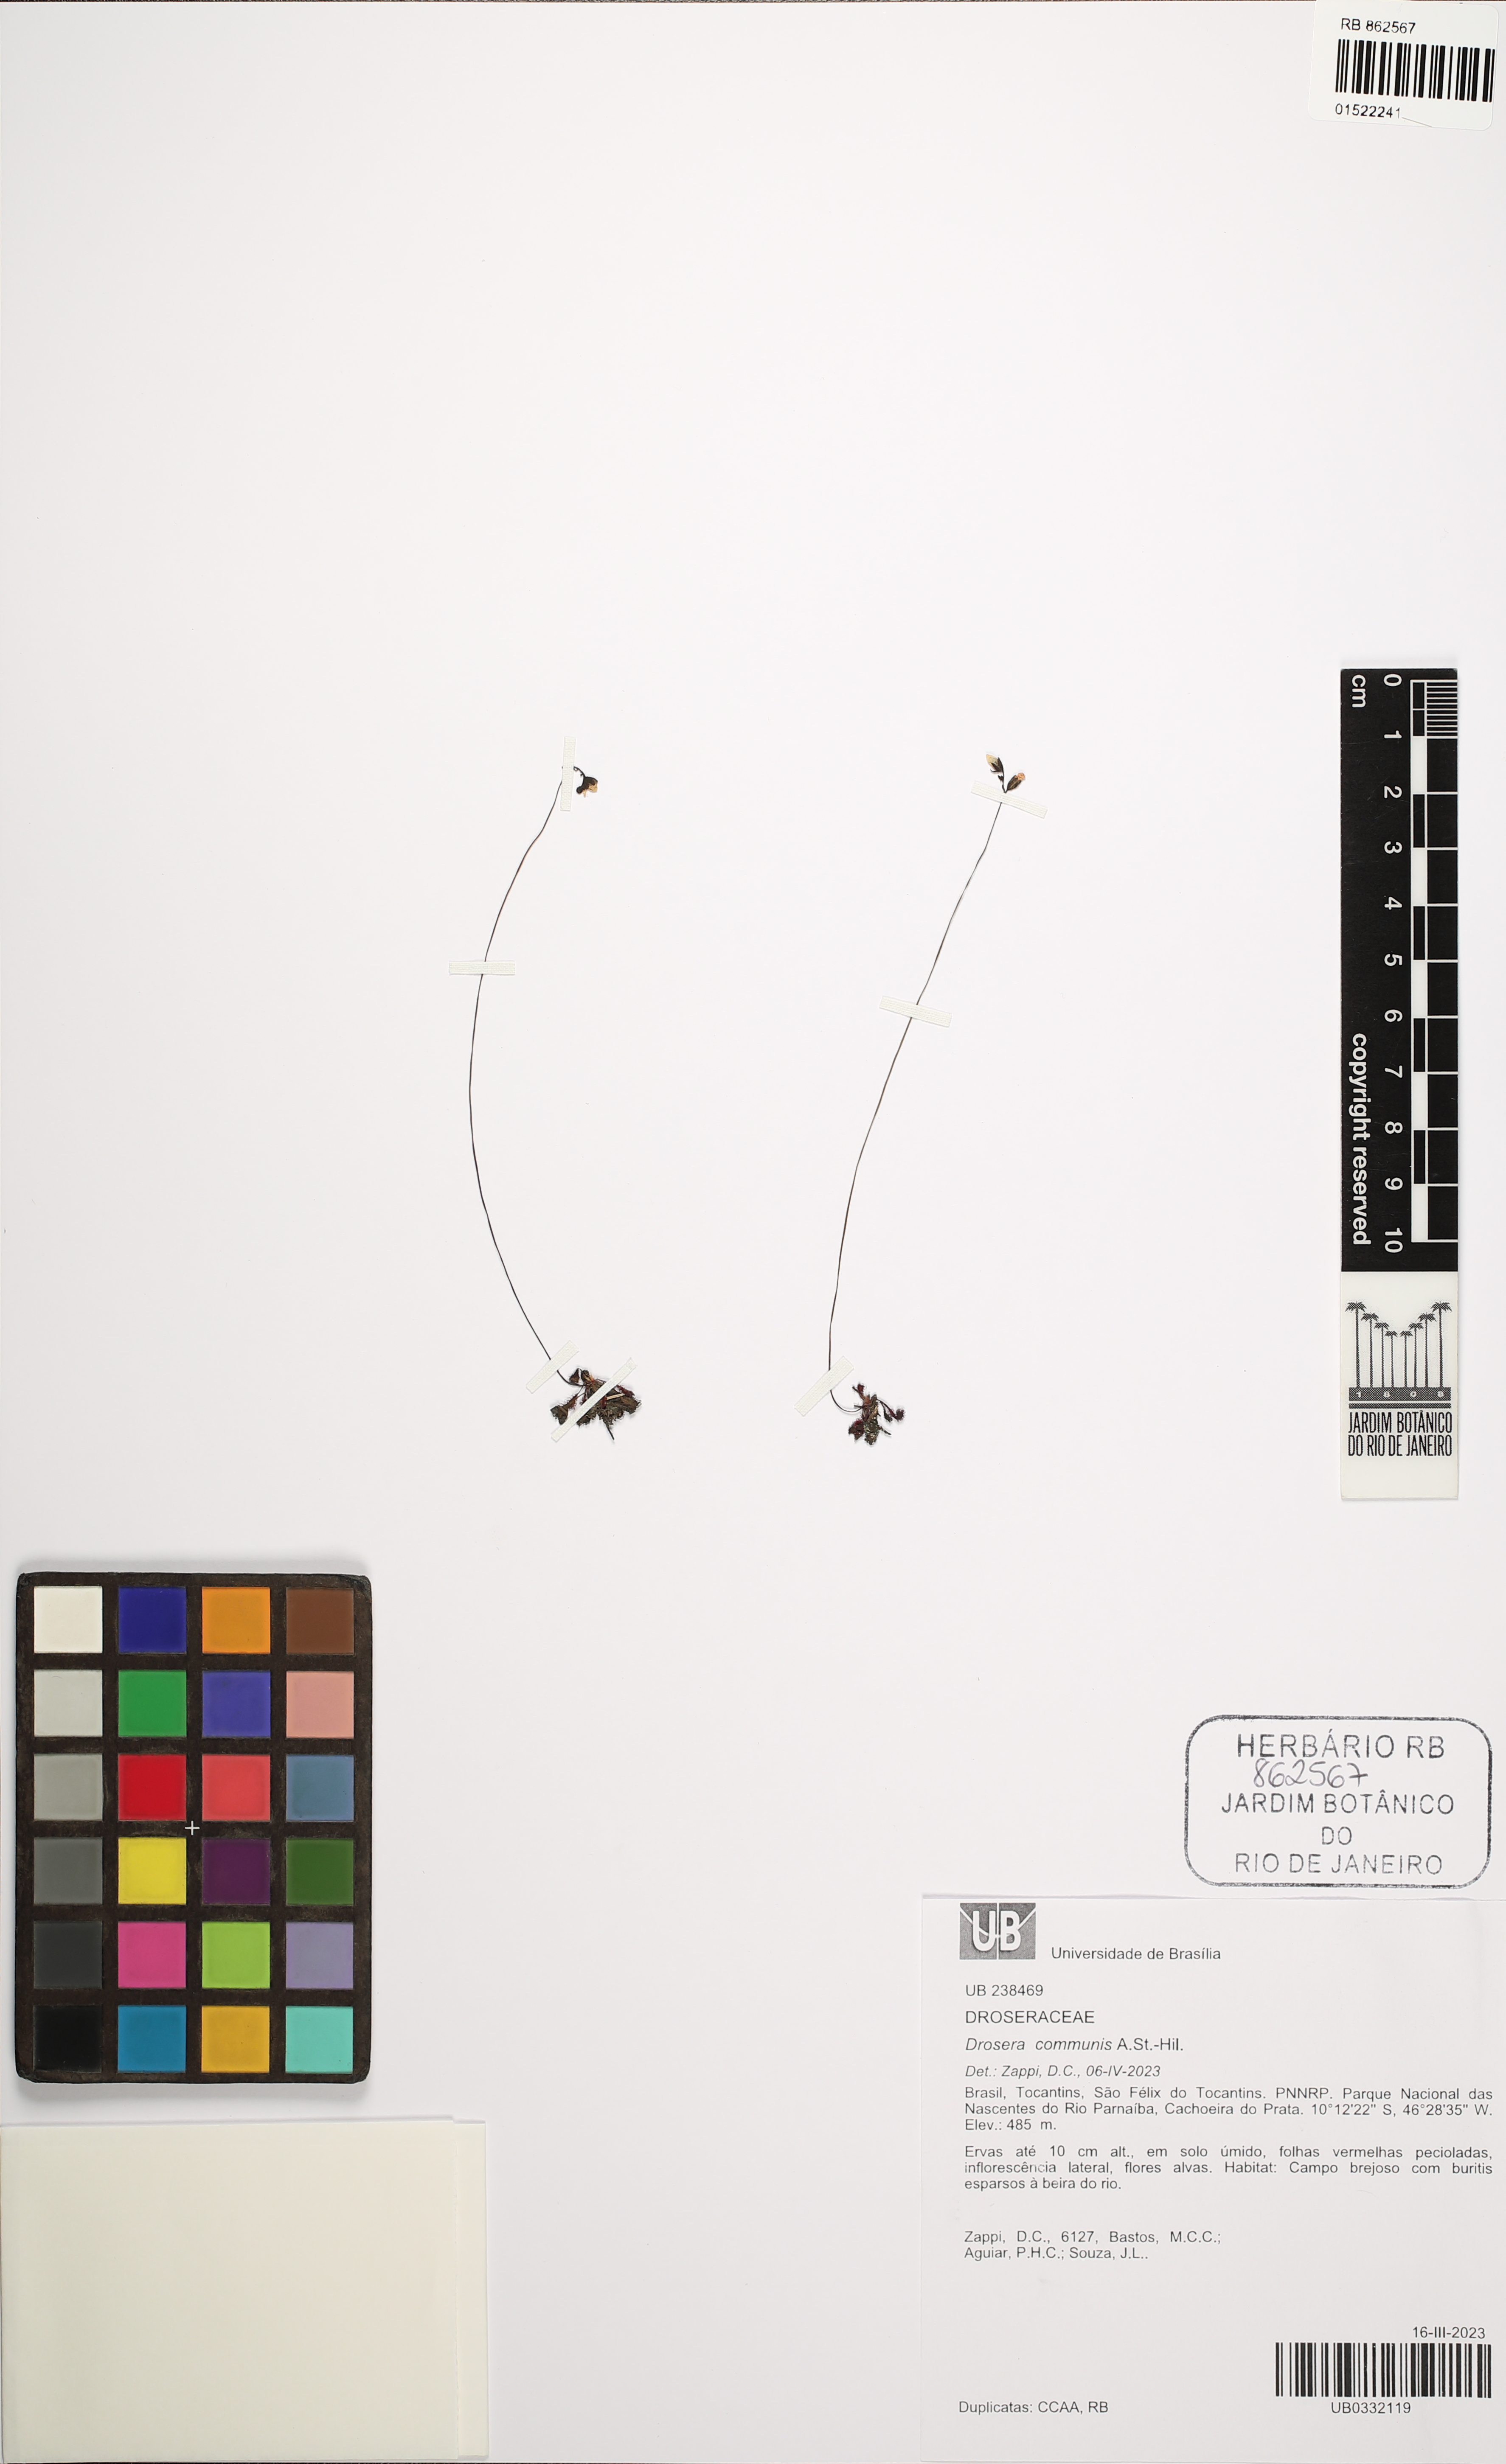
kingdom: Plantae
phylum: Tracheophyta
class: Magnoliopsida
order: Caryophyllales
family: Droseraceae
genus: Drosera
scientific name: Drosera communis
